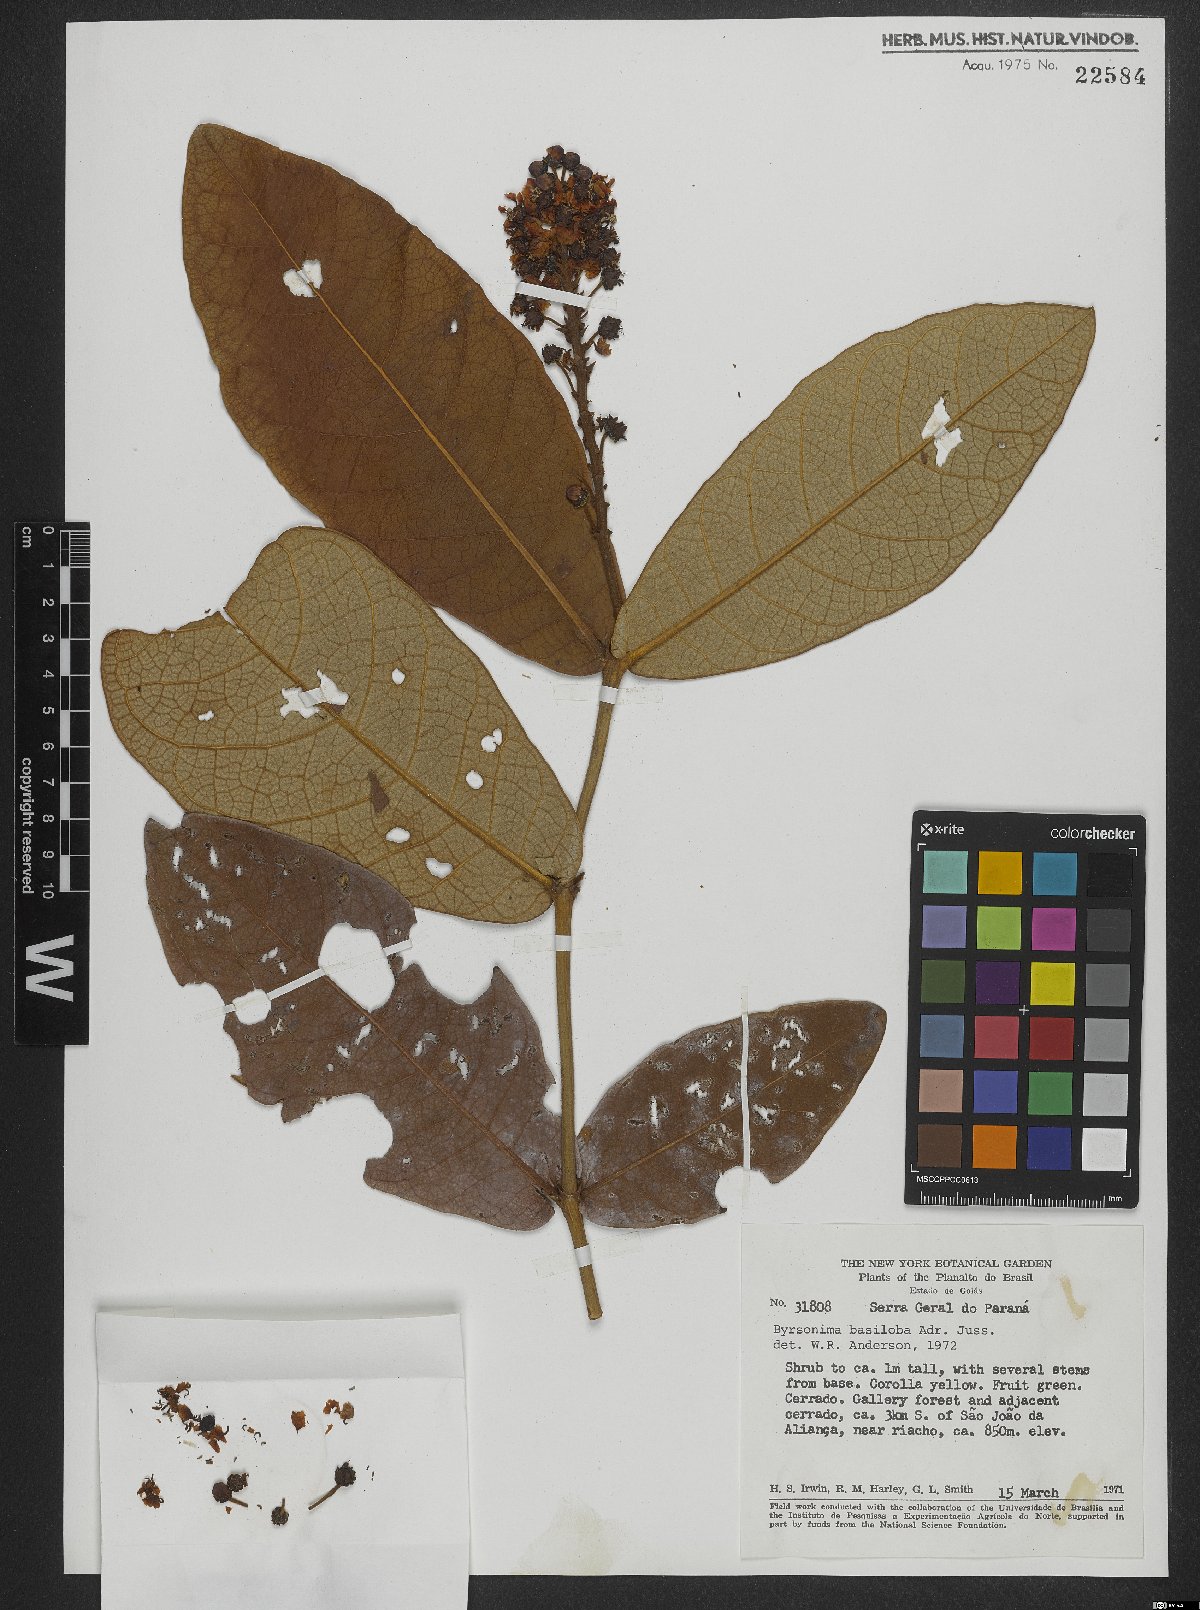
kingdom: Plantae
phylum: Tracheophyta
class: Magnoliopsida
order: Malpighiales
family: Malpighiaceae
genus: Byrsonima
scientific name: Byrsonima basiloba
